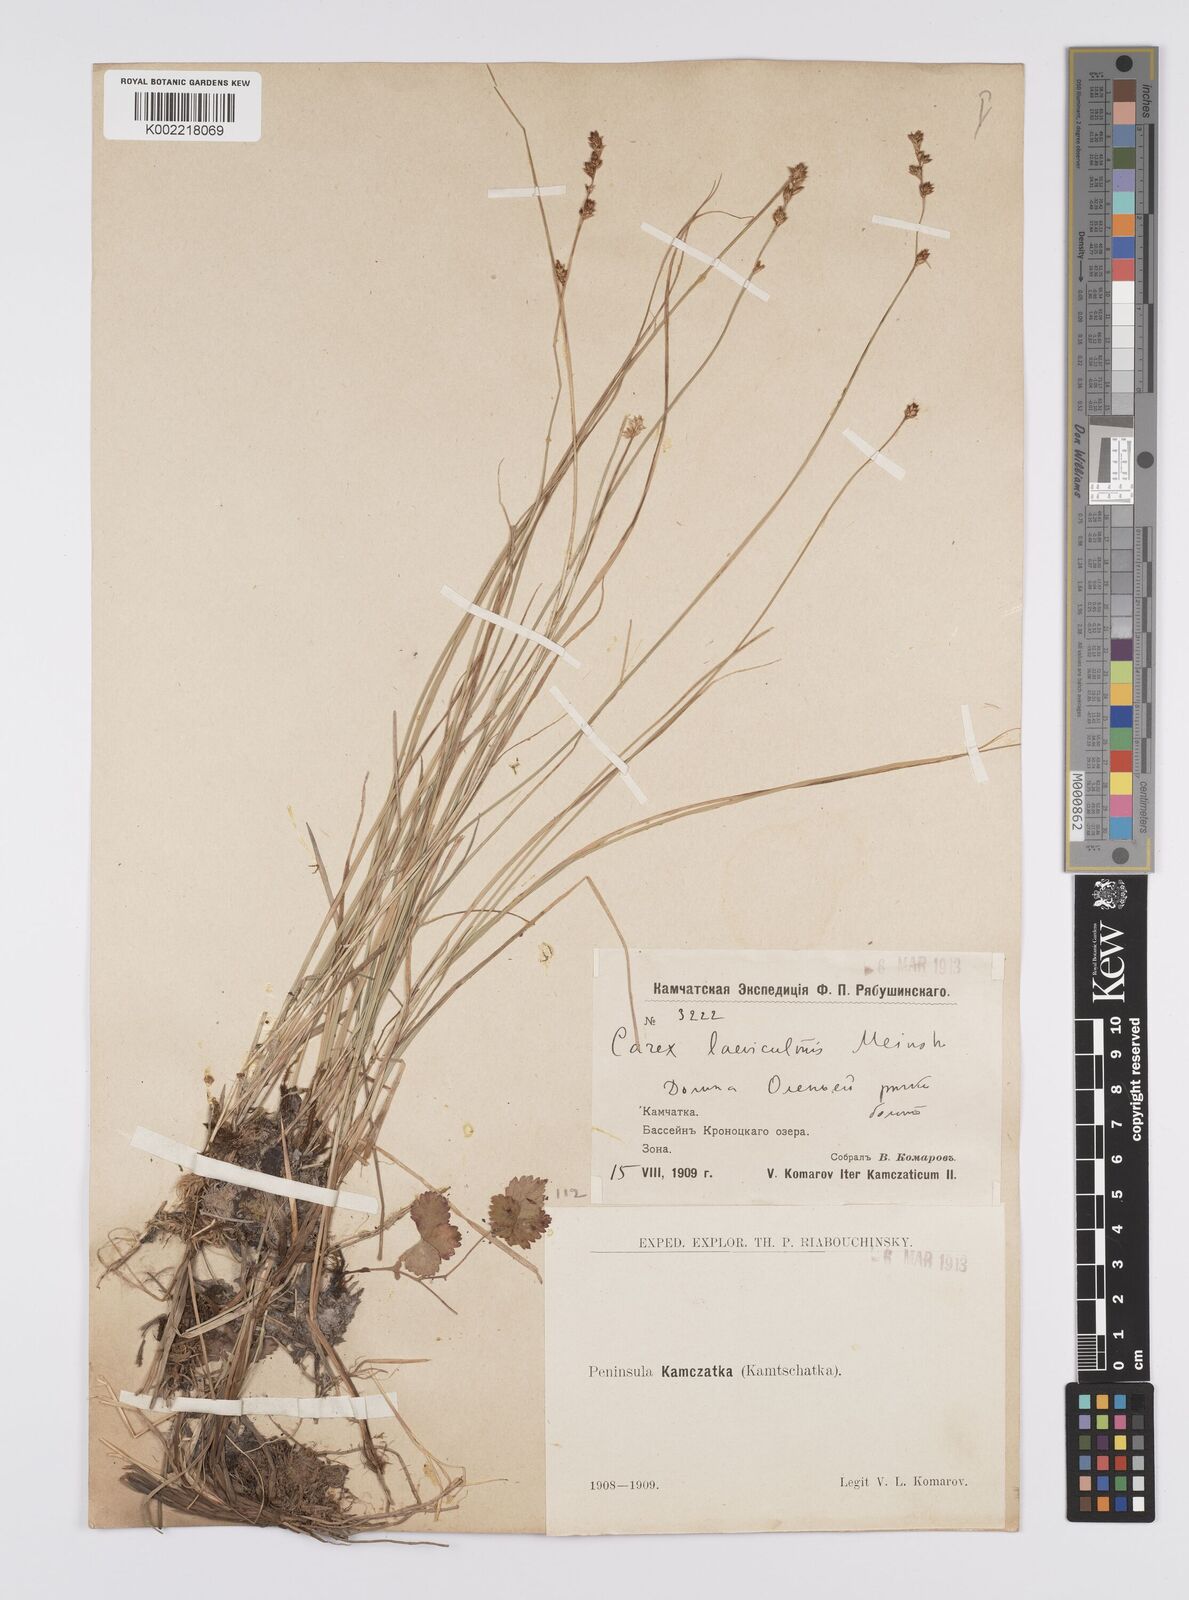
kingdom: Plantae
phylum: Tracheophyta
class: Liliopsida
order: Poales
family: Cyperaceae
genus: Carex
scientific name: Carex laeviculmis
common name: Smooth sedge
